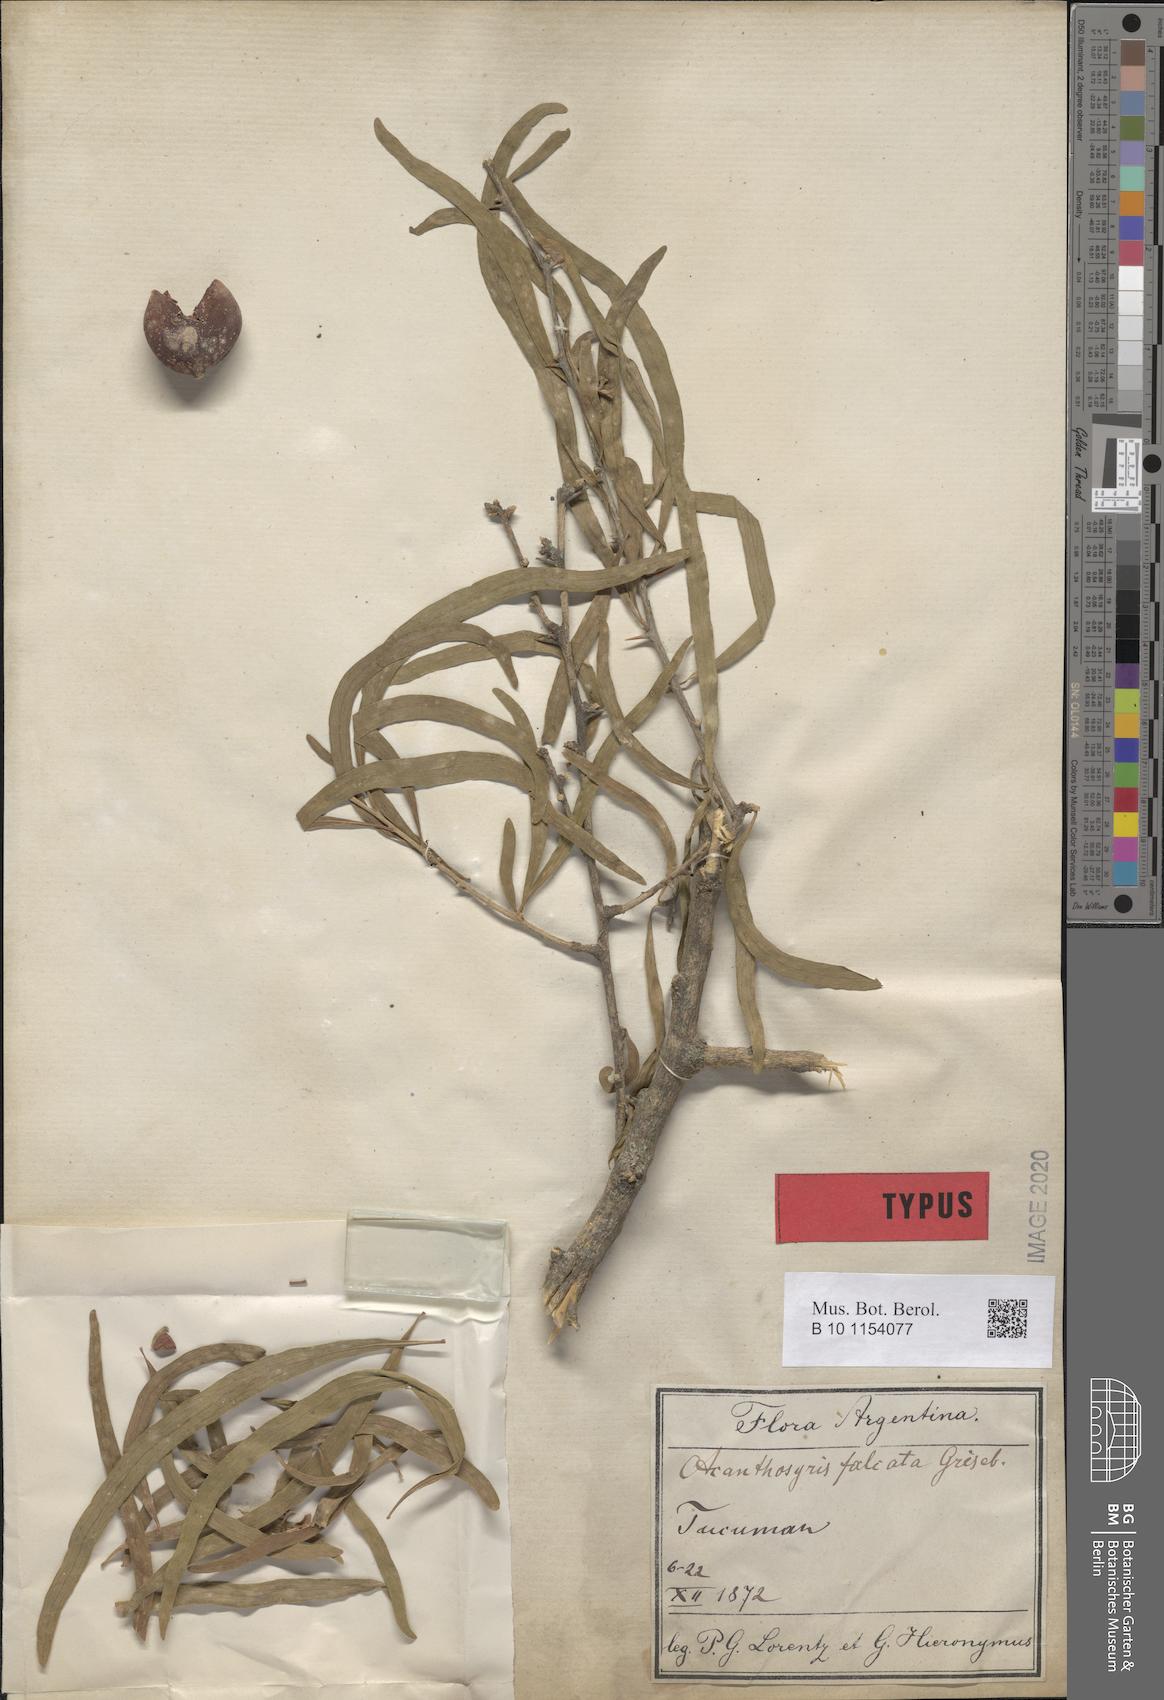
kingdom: Plantae
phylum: Tracheophyta
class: Magnoliopsida
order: Santalales
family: Cervantesiaceae
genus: Acanthosyris
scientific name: Acanthosyris falcata
